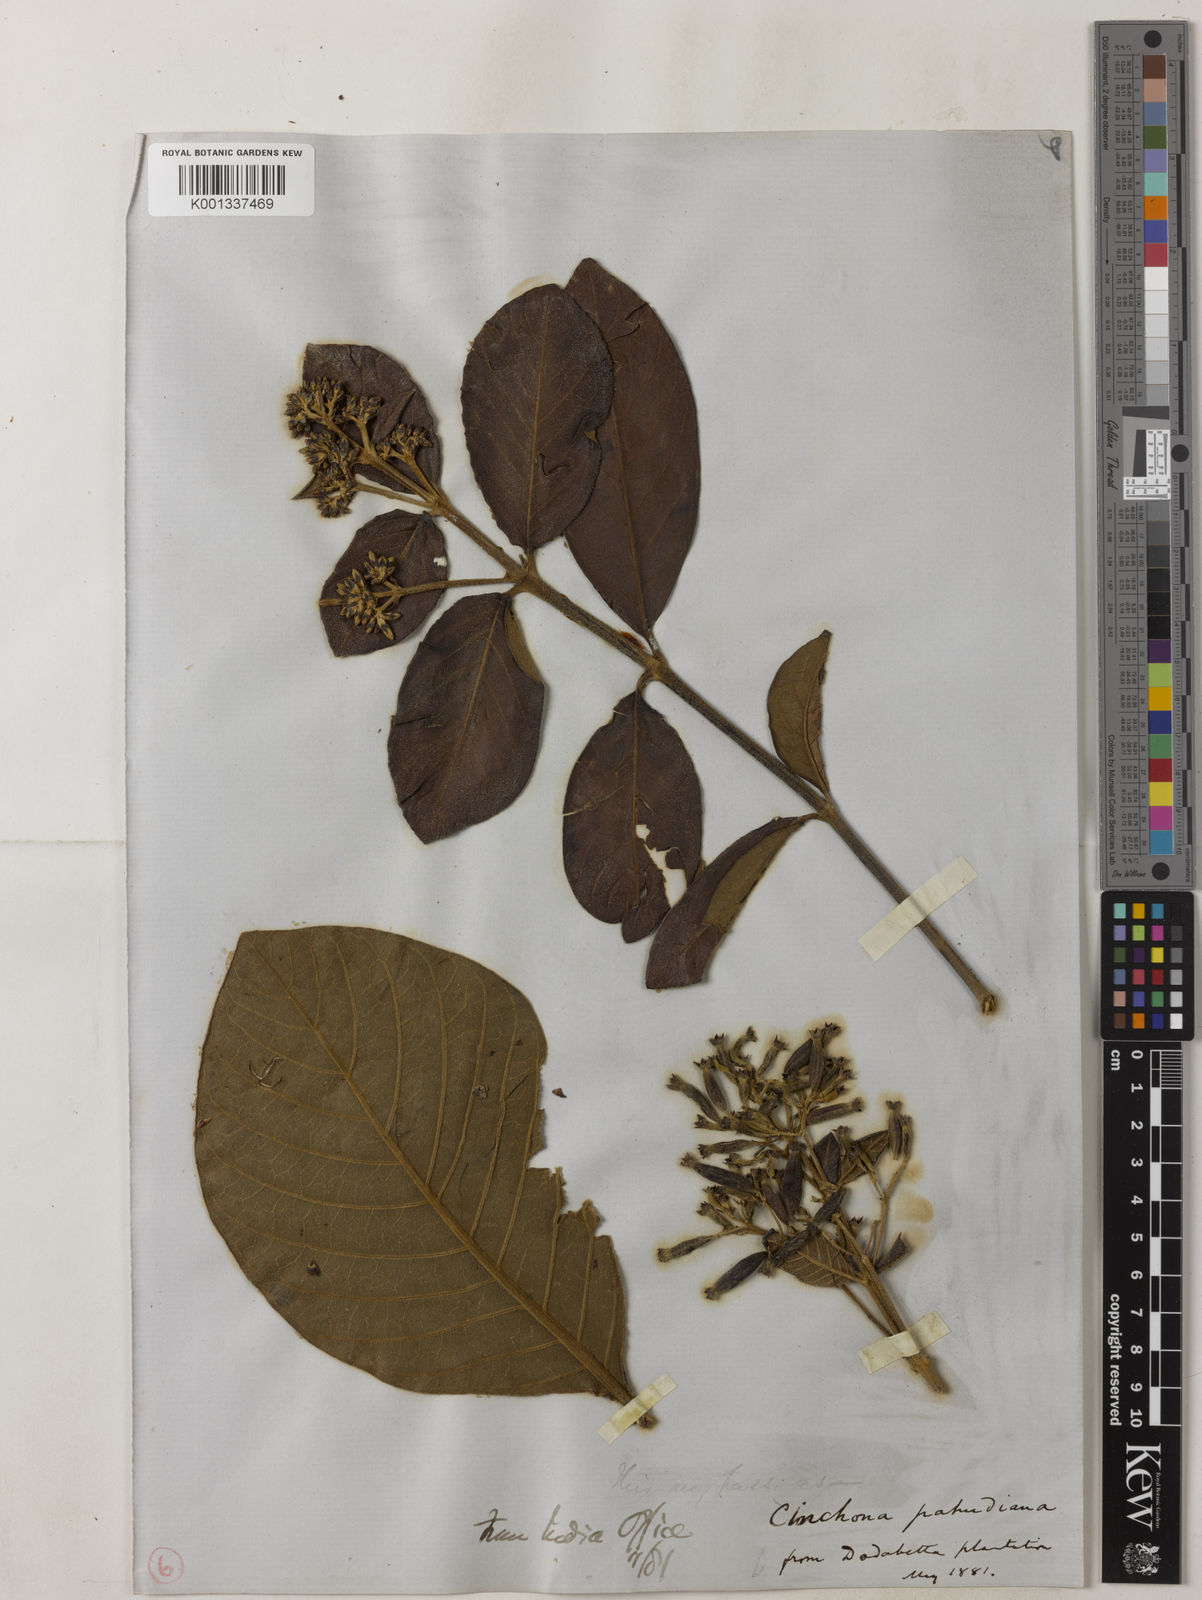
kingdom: Plantae
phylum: Tracheophyta
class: Magnoliopsida
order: Gentianales
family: Rubiaceae
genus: Cinchona
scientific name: Cinchona calisaya
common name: Ledgerbark
